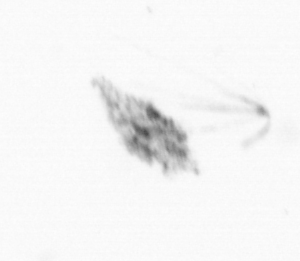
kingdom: Animalia
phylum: Arthropoda
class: Copepoda
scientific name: Copepoda
